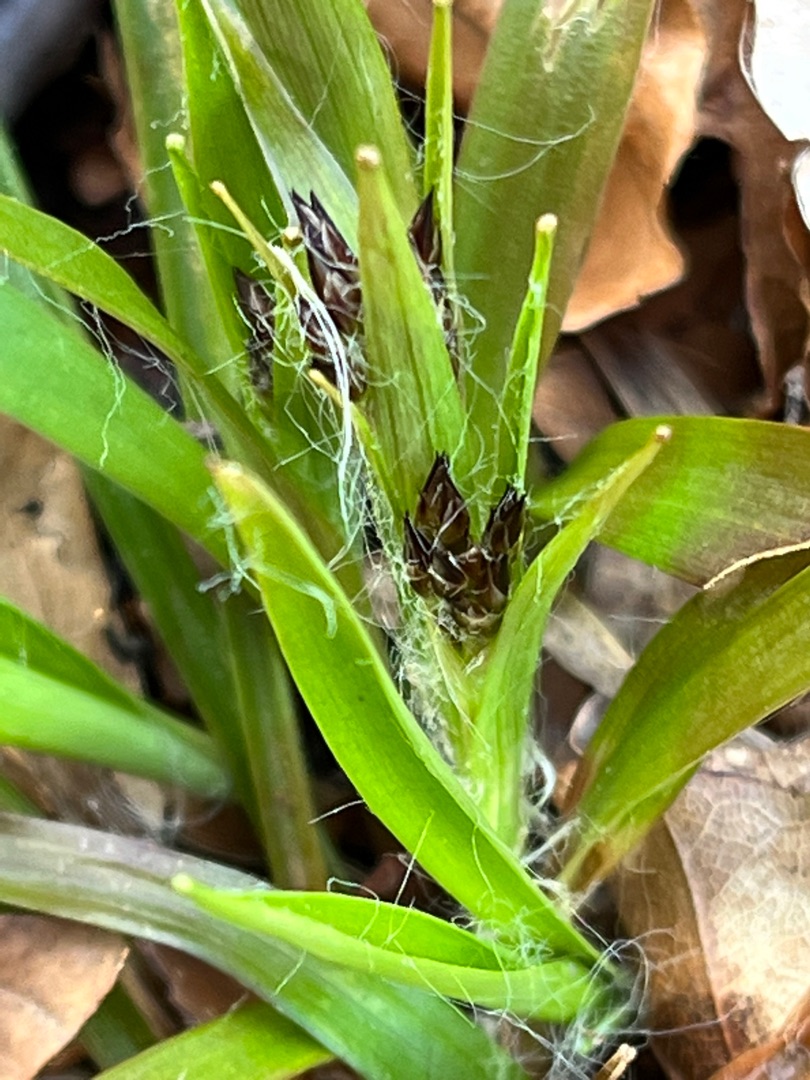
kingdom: Plantae
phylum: Tracheophyta
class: Liliopsida
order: Poales
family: Juncaceae
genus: Luzula
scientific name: Luzula pilosa
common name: Håret frytle
